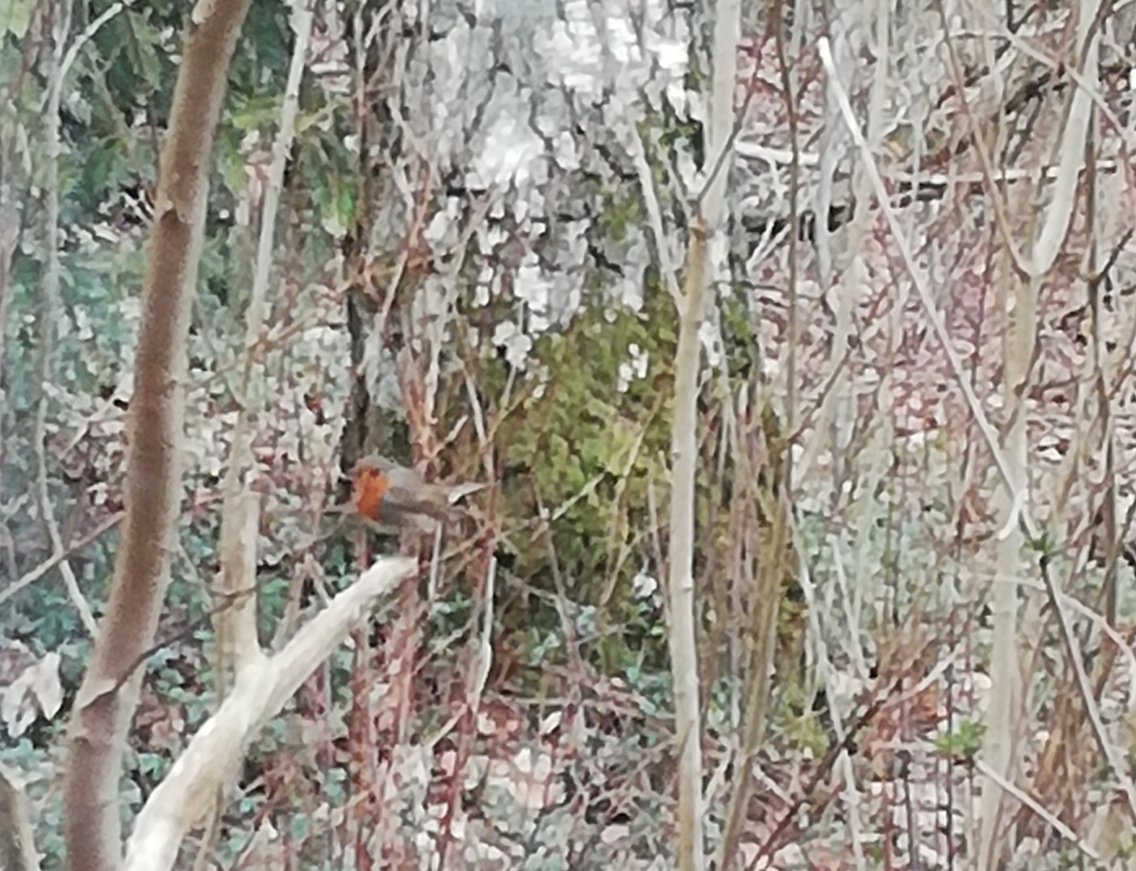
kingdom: Animalia
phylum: Chordata
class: Aves
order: Passeriformes
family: Muscicapidae
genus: Erithacus
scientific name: Erithacus rubecula
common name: Rødhals/rødkælk
